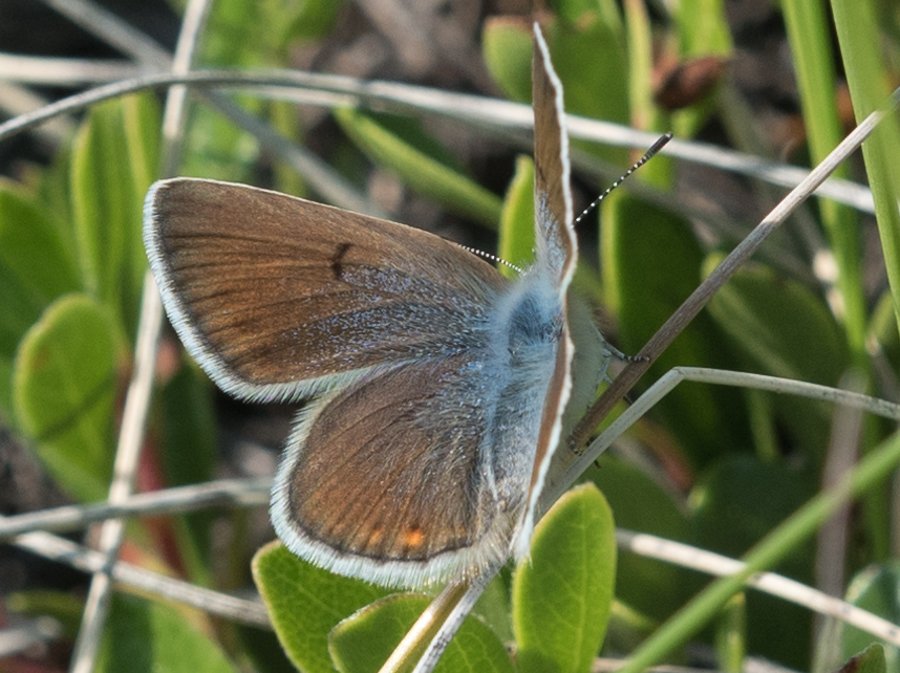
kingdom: Animalia
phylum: Arthropoda
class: Insecta
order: Lepidoptera
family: Lycaenidae
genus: Plebejus
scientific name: Plebejus saepiolus
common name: Greenish Blue
